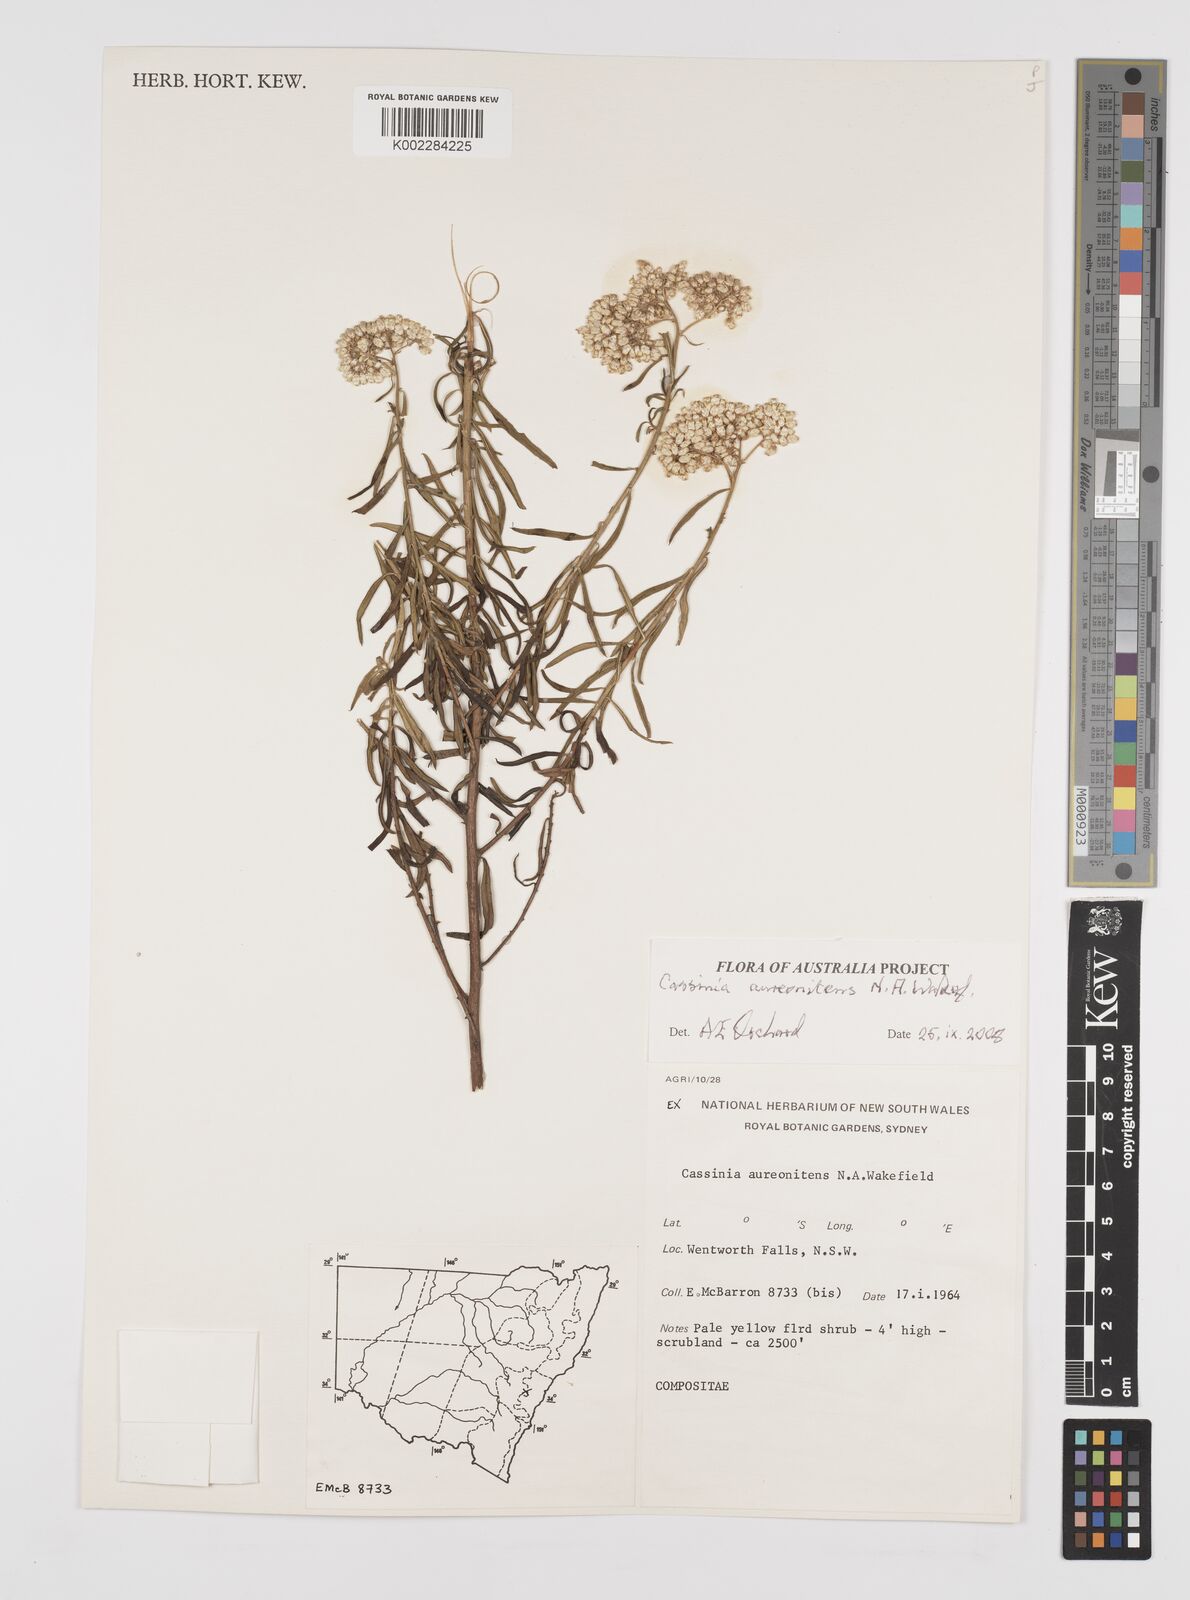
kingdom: Plantae
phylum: Tracheophyta
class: Magnoliopsida
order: Asterales
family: Asteraceae
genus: Cassinia
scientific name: Cassinia aureonitens
